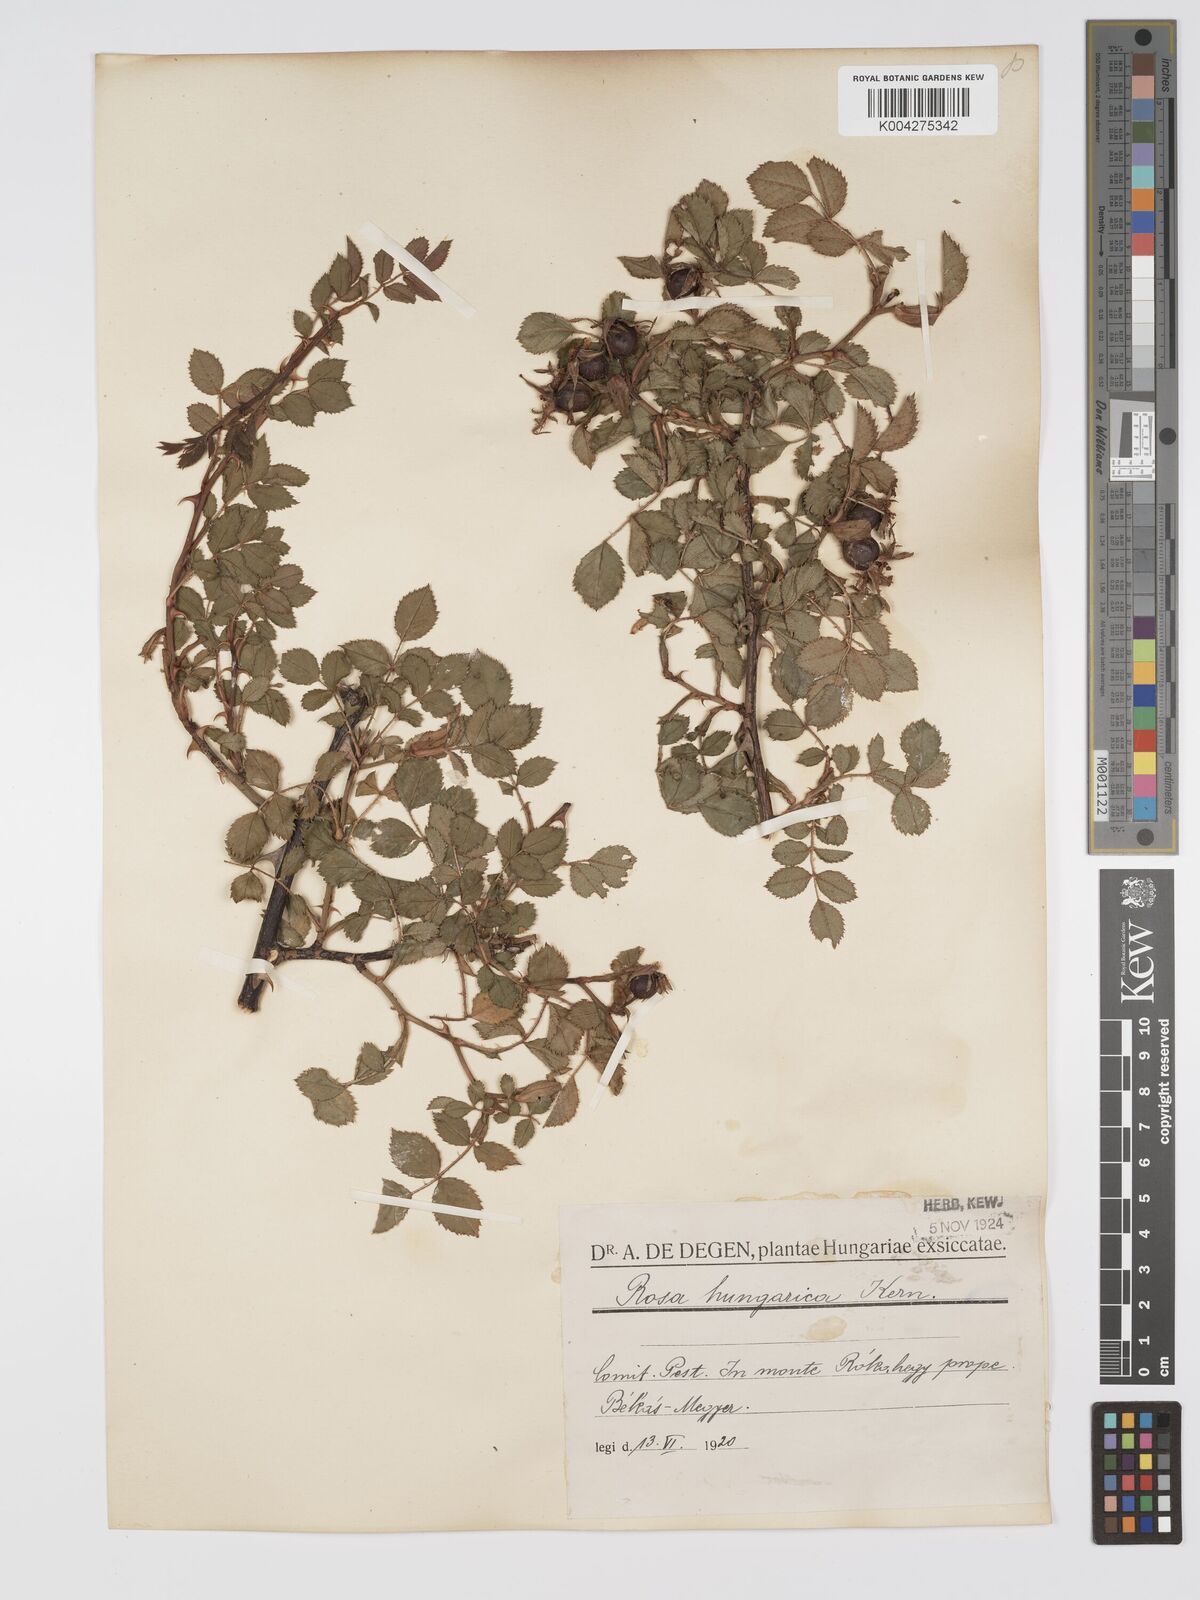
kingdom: Plantae
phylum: Tracheophyta
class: Magnoliopsida
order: Rosales
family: Rosaceae
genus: Rosa
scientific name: Rosa
